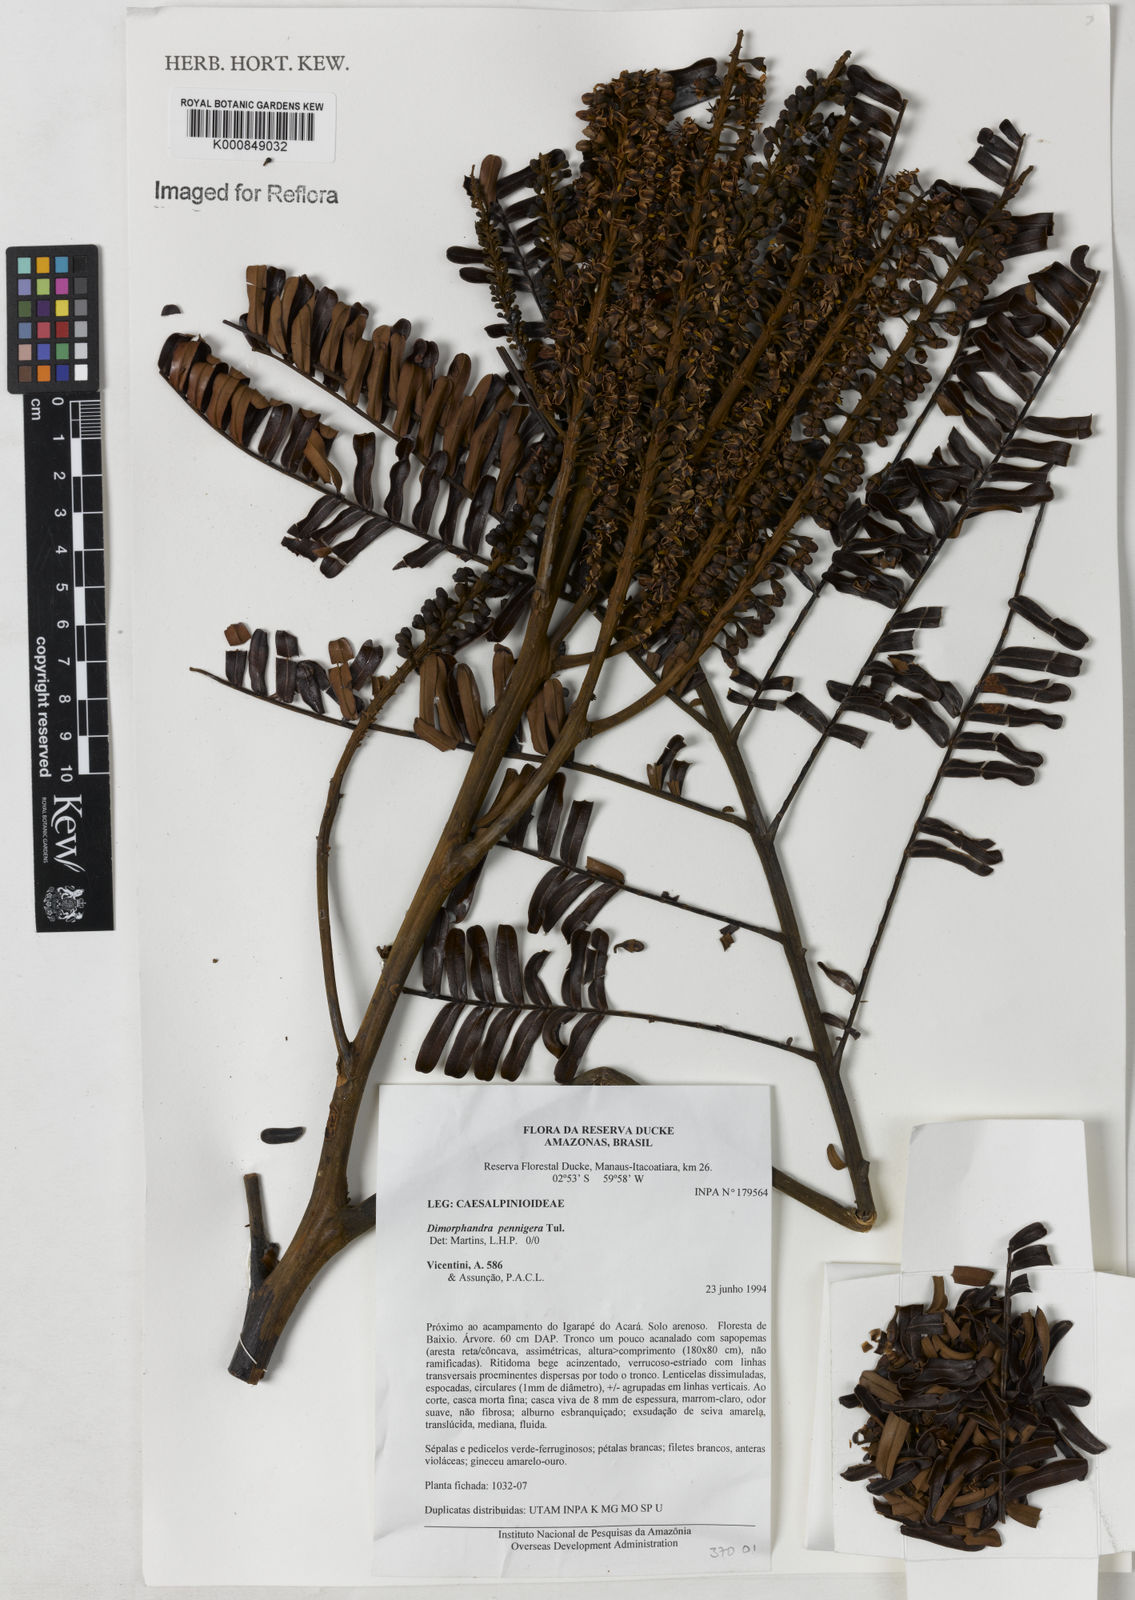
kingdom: Plantae
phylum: Tracheophyta
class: Magnoliopsida
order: Fabales
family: Fabaceae
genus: Dimorphandra
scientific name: Dimorphandra pennigera
